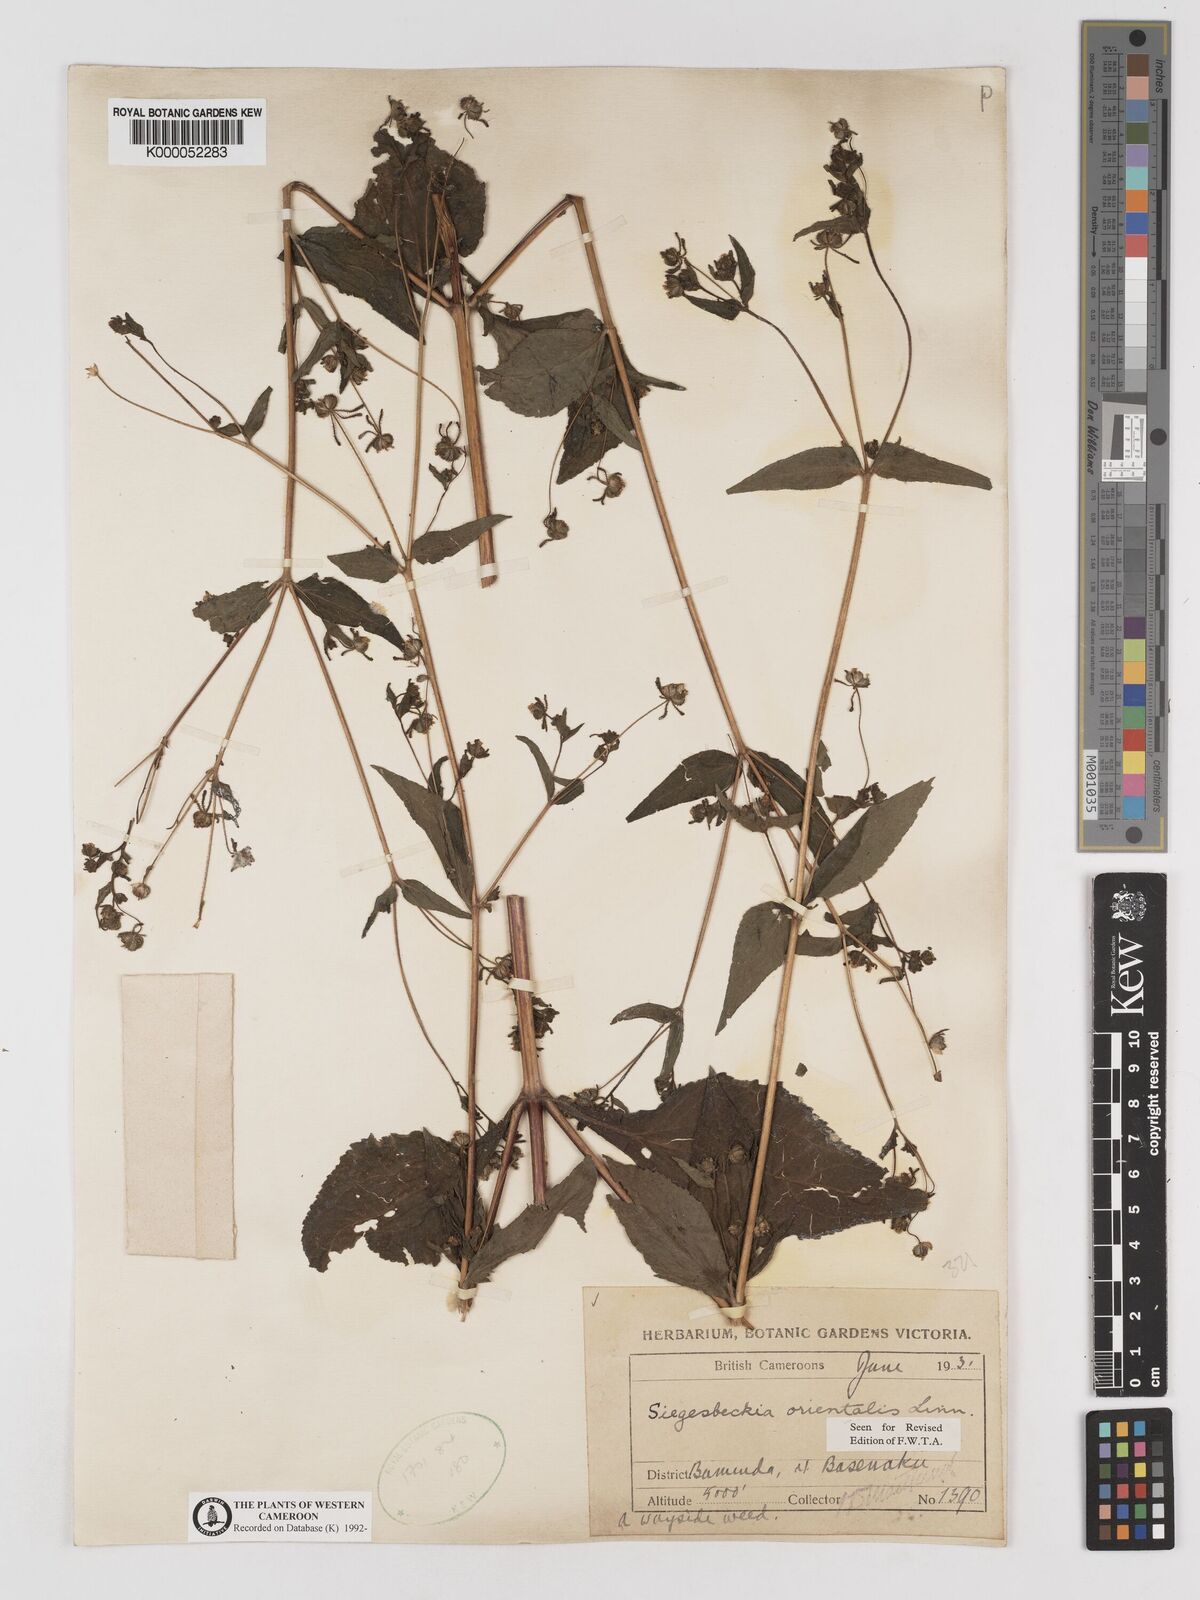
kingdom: Plantae
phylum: Tracheophyta
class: Magnoliopsida
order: Asterales
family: Asteraceae
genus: Sigesbeckia
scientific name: Sigesbeckia
